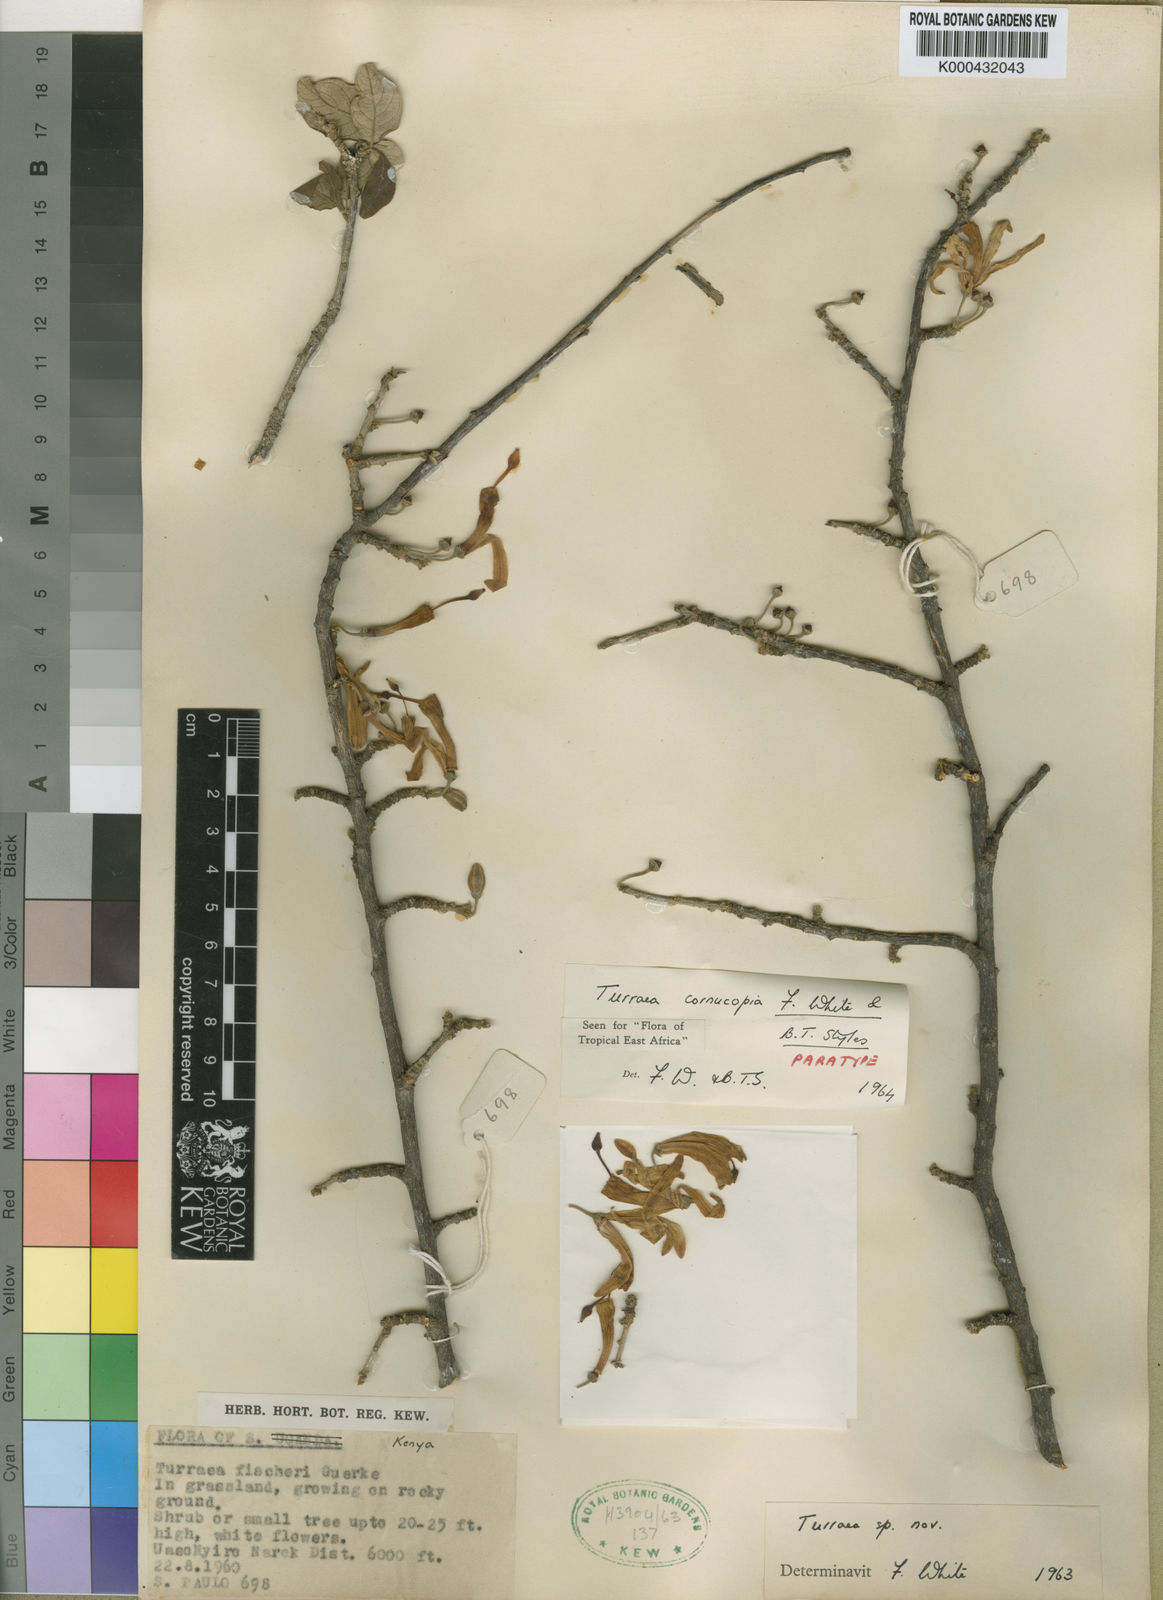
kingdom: Plantae
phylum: Tracheophyta
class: Magnoliopsida
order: Sapindales
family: Meliaceae
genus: Turraea
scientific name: Turraea cornucopia
